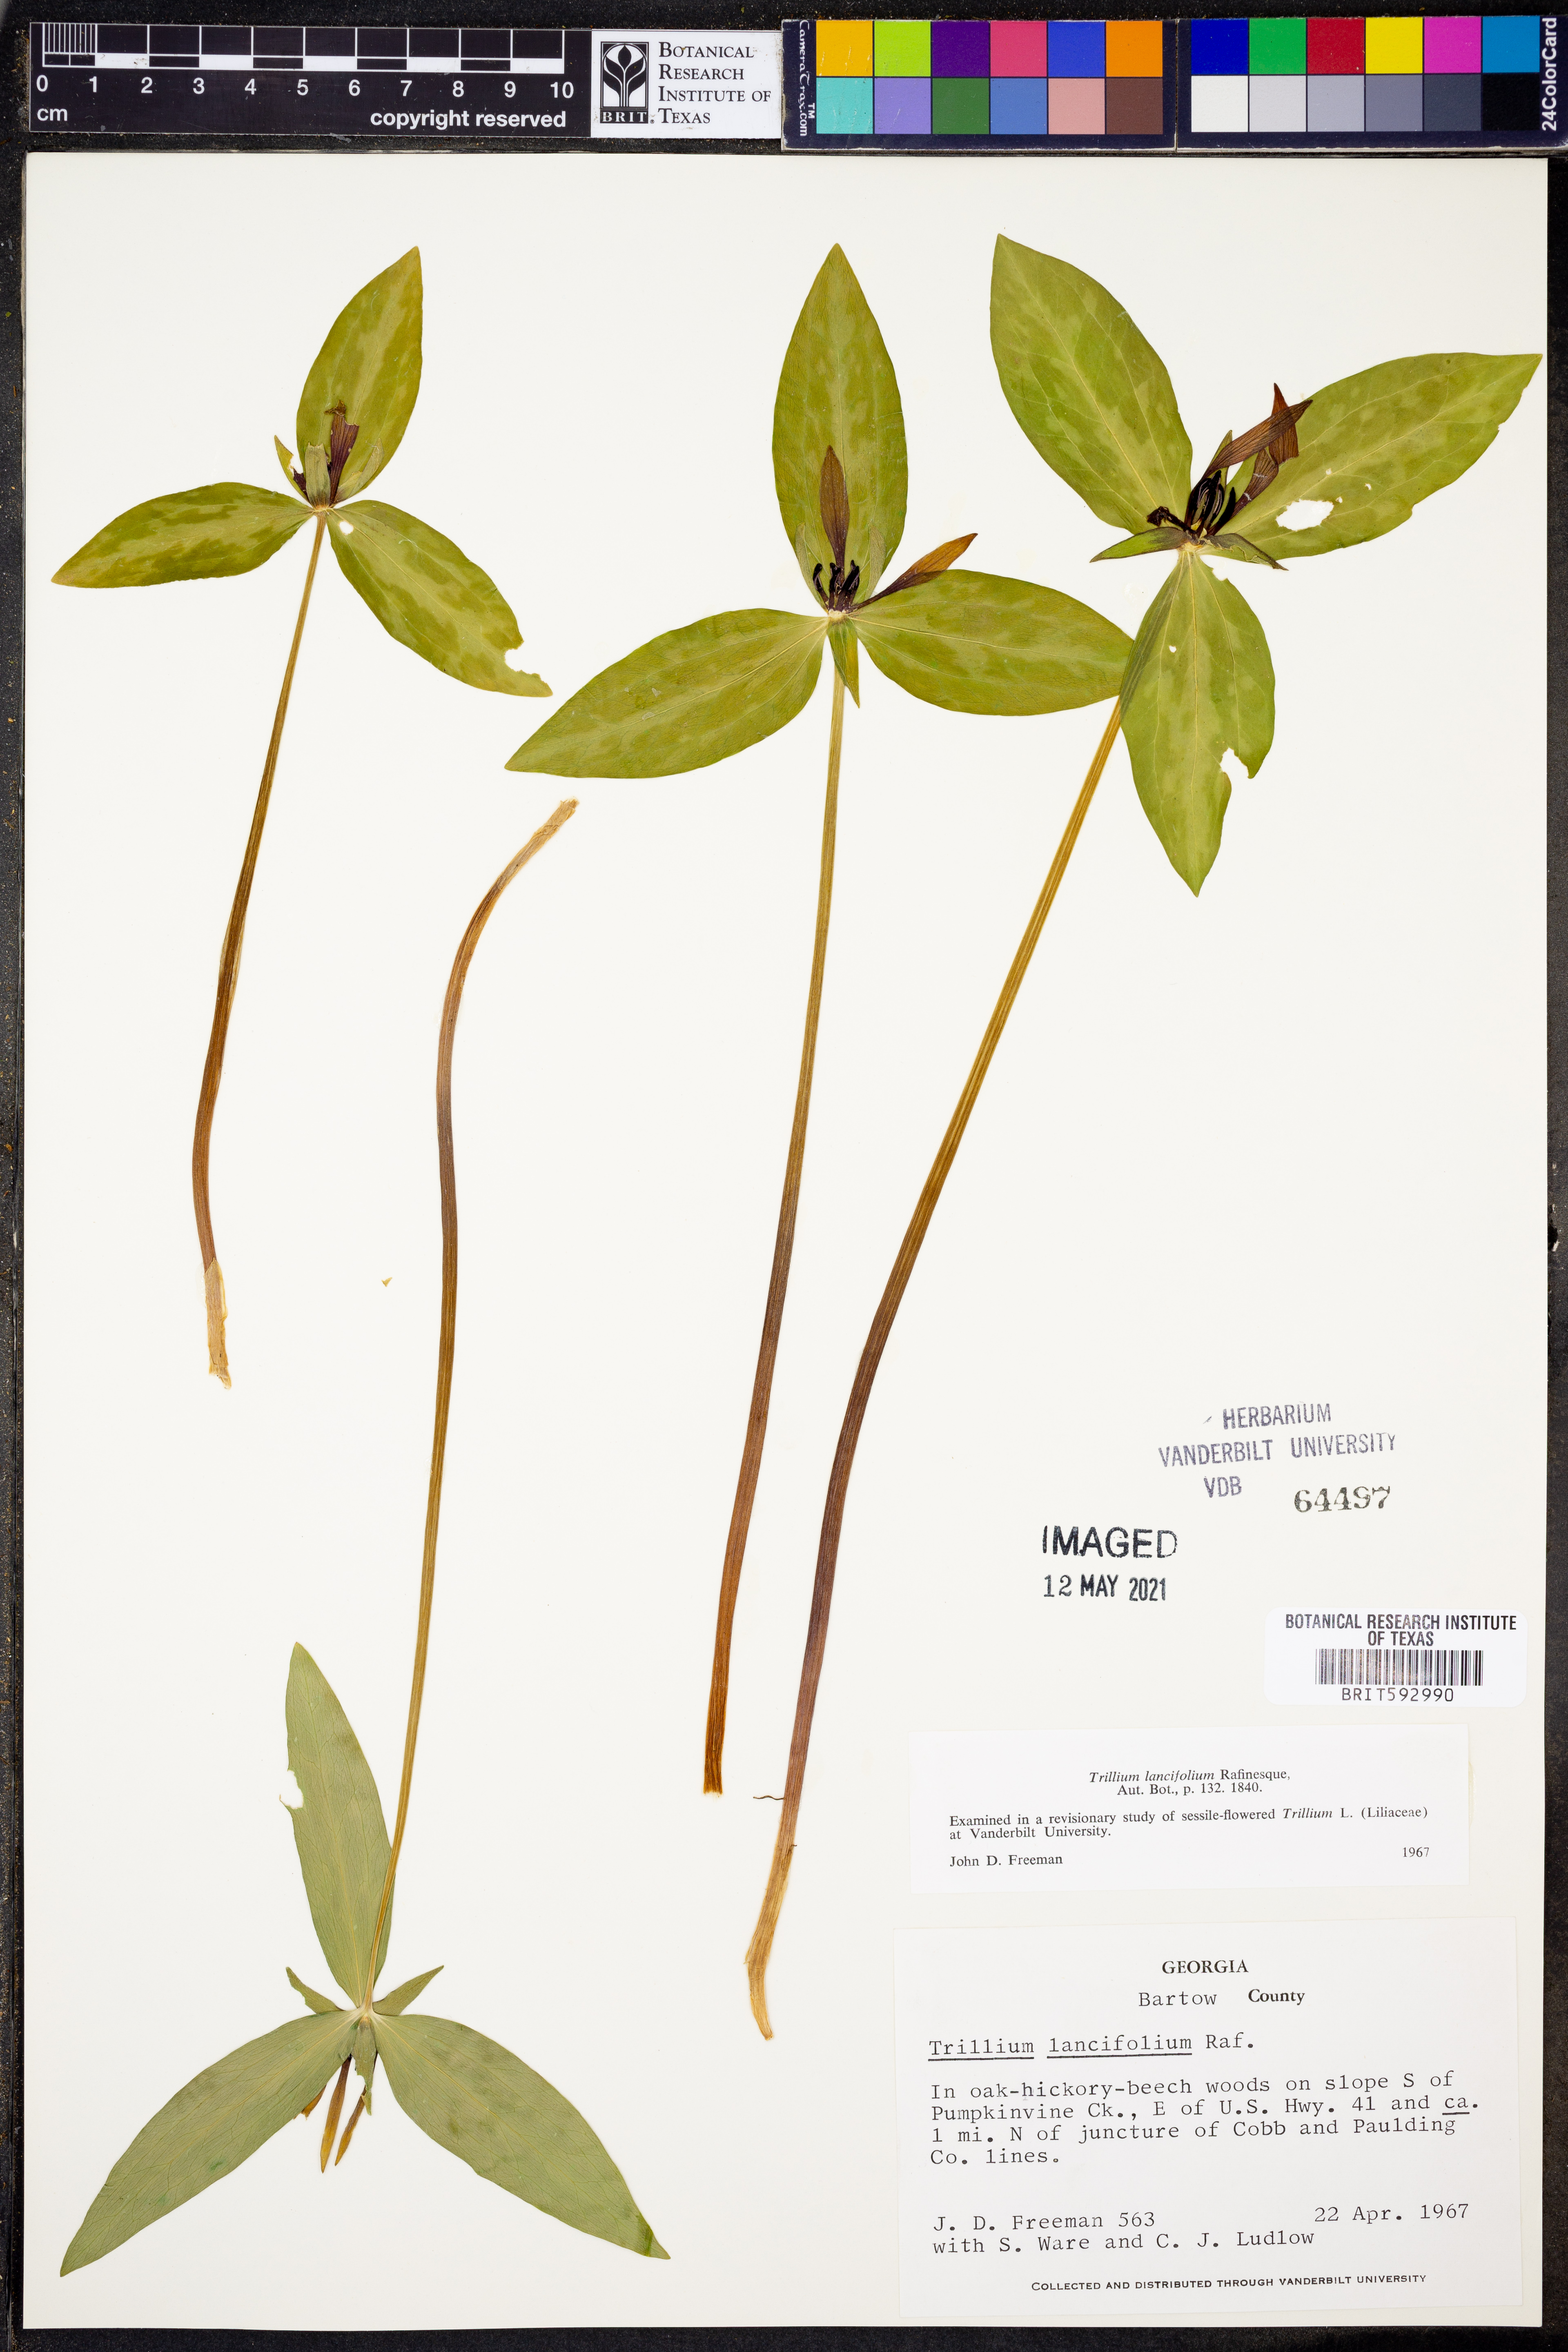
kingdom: Plantae
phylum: Tracheophyta
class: Liliopsida
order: Liliales
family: Melanthiaceae
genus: Trillium
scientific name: Trillium lancifolium
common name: Lance-leaved trillium
